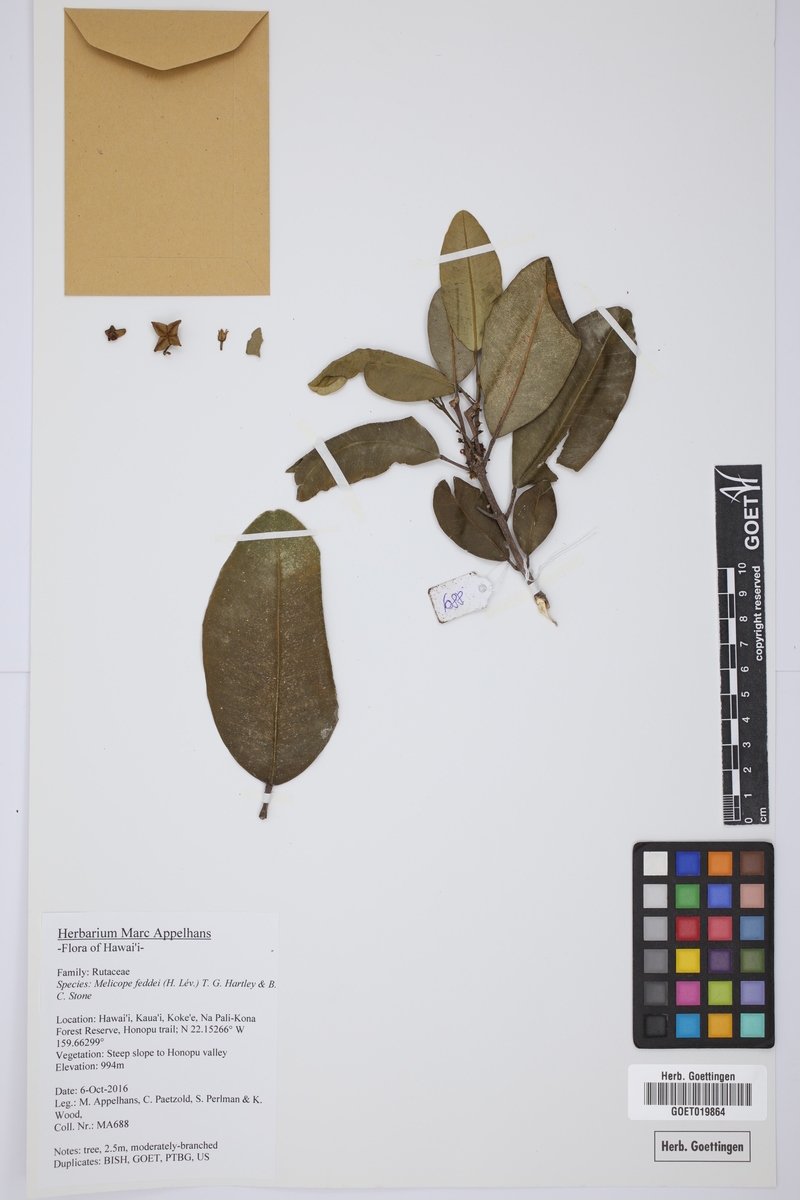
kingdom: Plantae
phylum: Tracheophyta
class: Magnoliopsida
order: Sapindales
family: Rutaceae
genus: Melicope
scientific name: Melicope feddei
